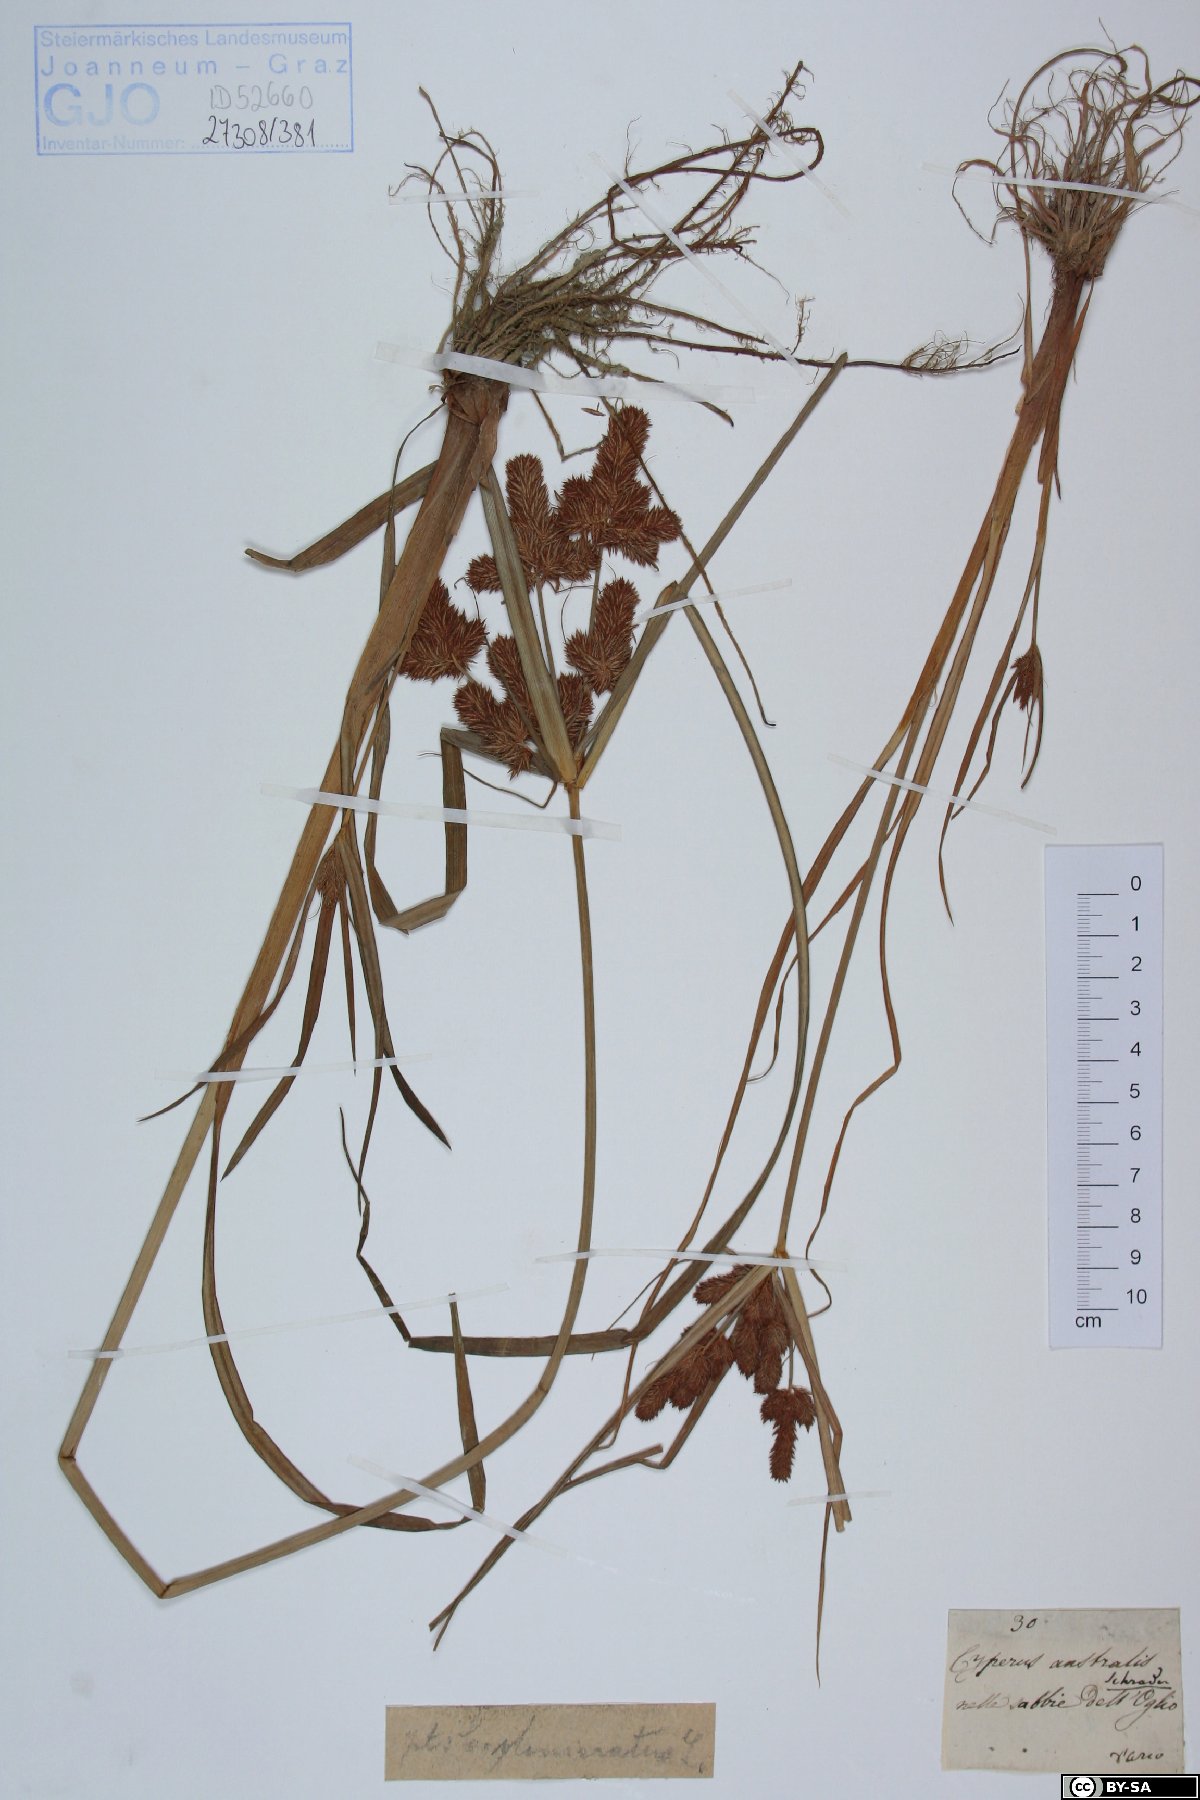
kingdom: Plantae
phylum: Tracheophyta
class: Liliopsida
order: Poales
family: Cyperaceae
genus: Cyperus
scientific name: Cyperus glomeratus
